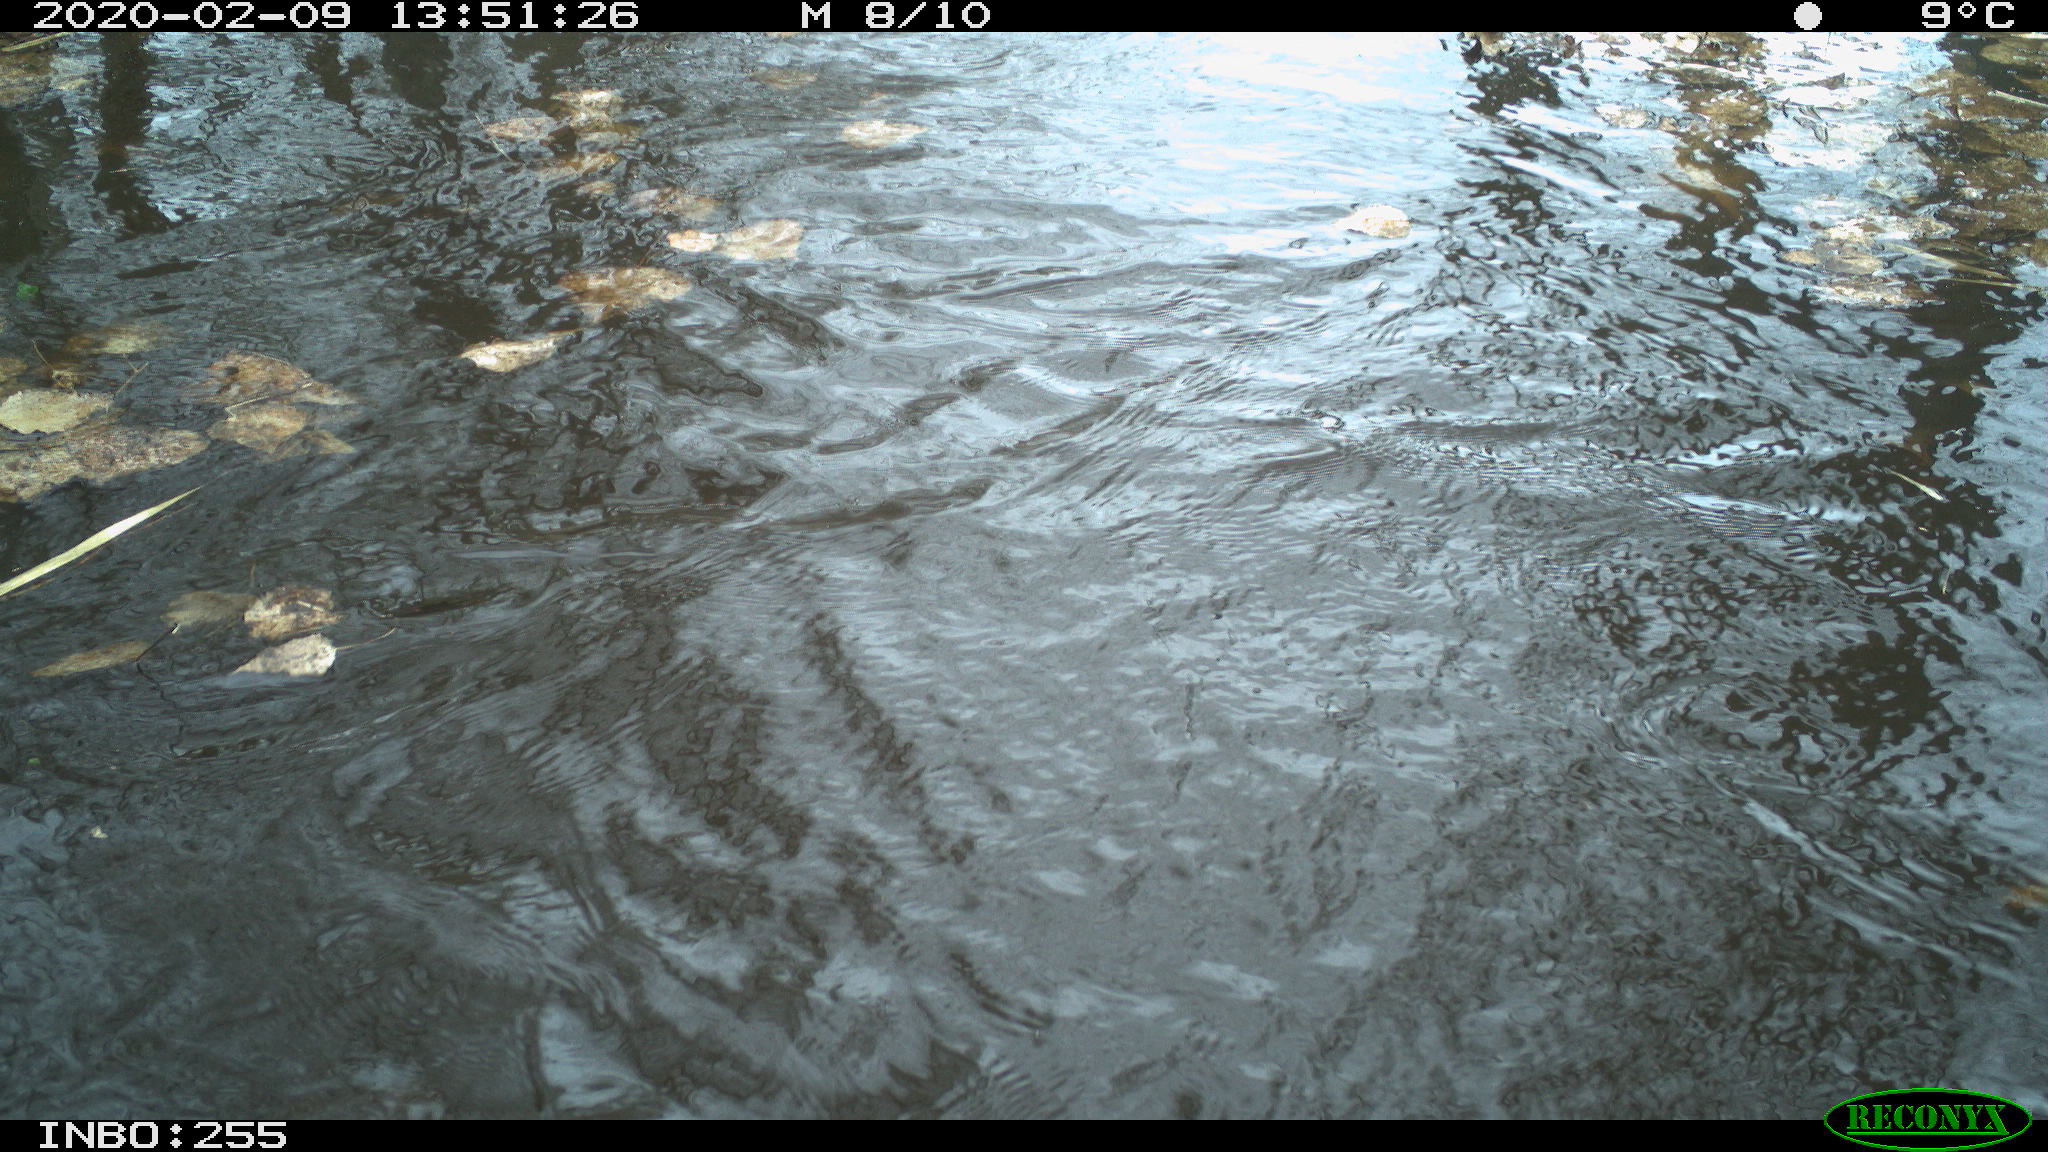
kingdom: Animalia
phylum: Chordata
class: Aves
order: Gruiformes
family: Rallidae
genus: Fulica
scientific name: Fulica atra
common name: Eurasian coot
